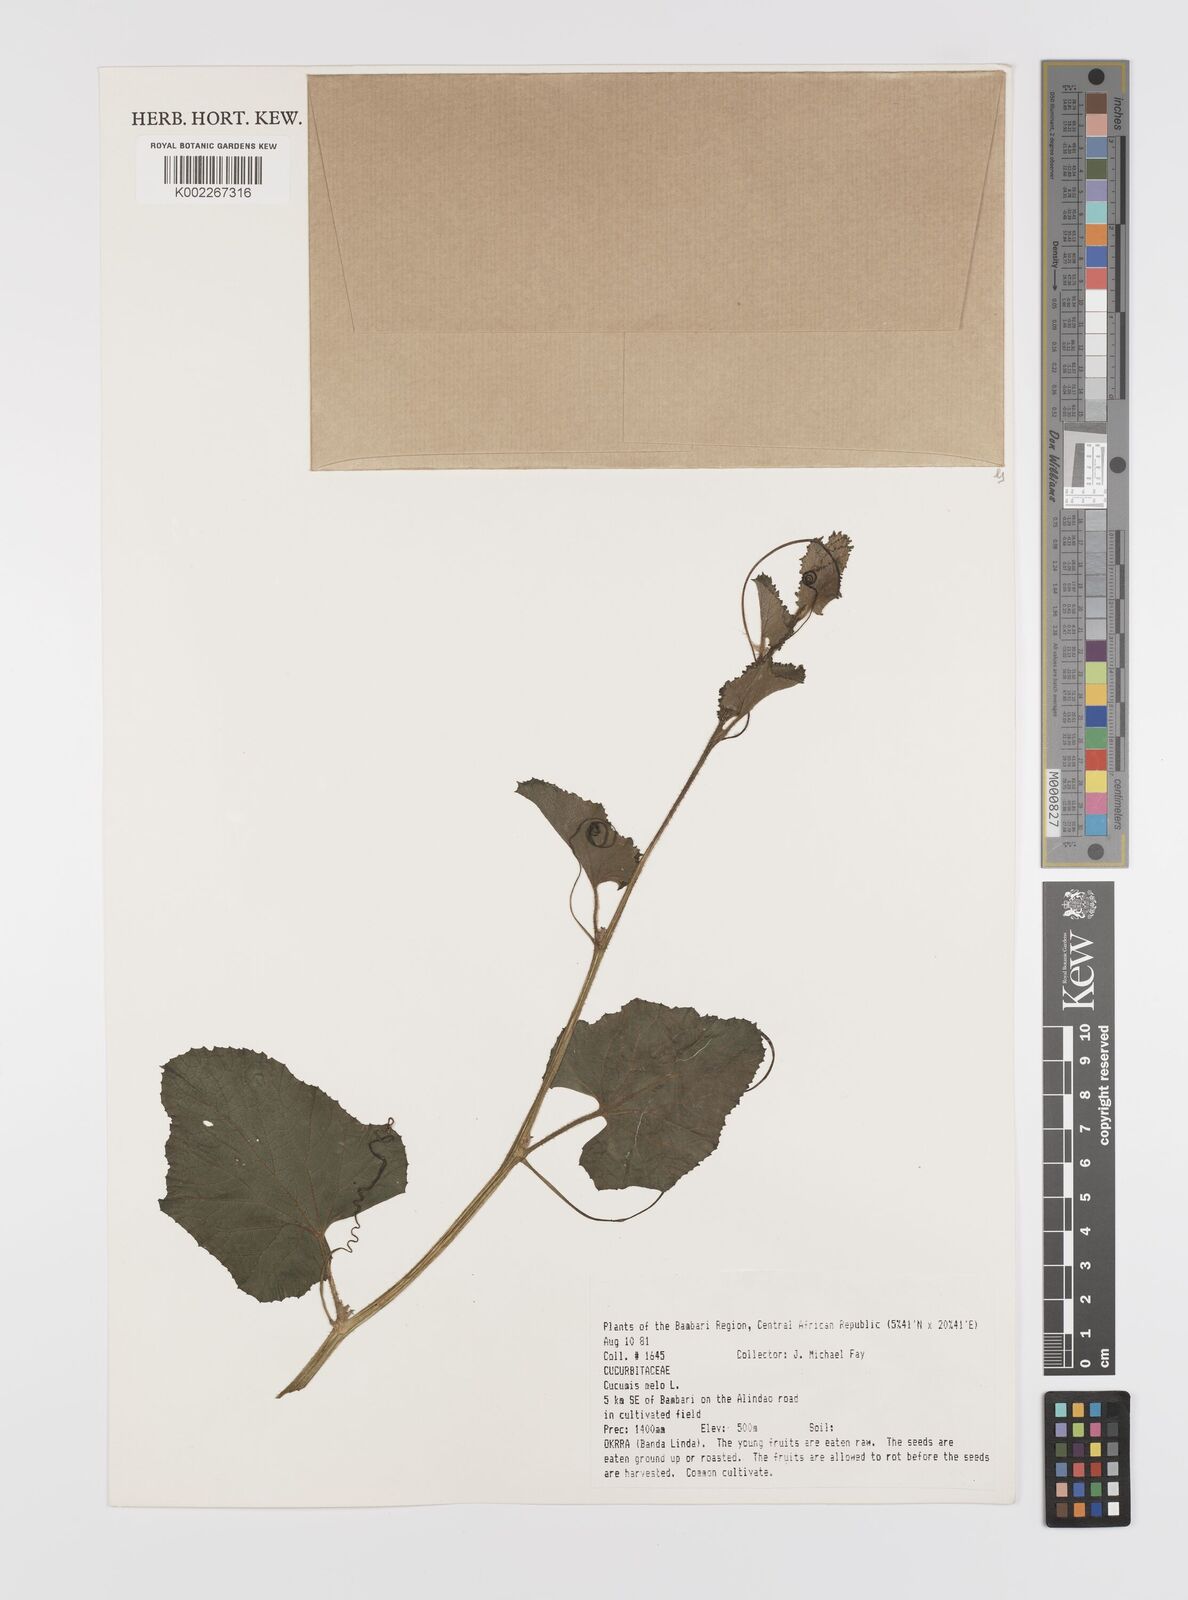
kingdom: Plantae
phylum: Tracheophyta
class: Magnoliopsida
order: Cucurbitales
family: Cucurbitaceae
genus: Cucumis
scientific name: Cucumis melo
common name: Melon
